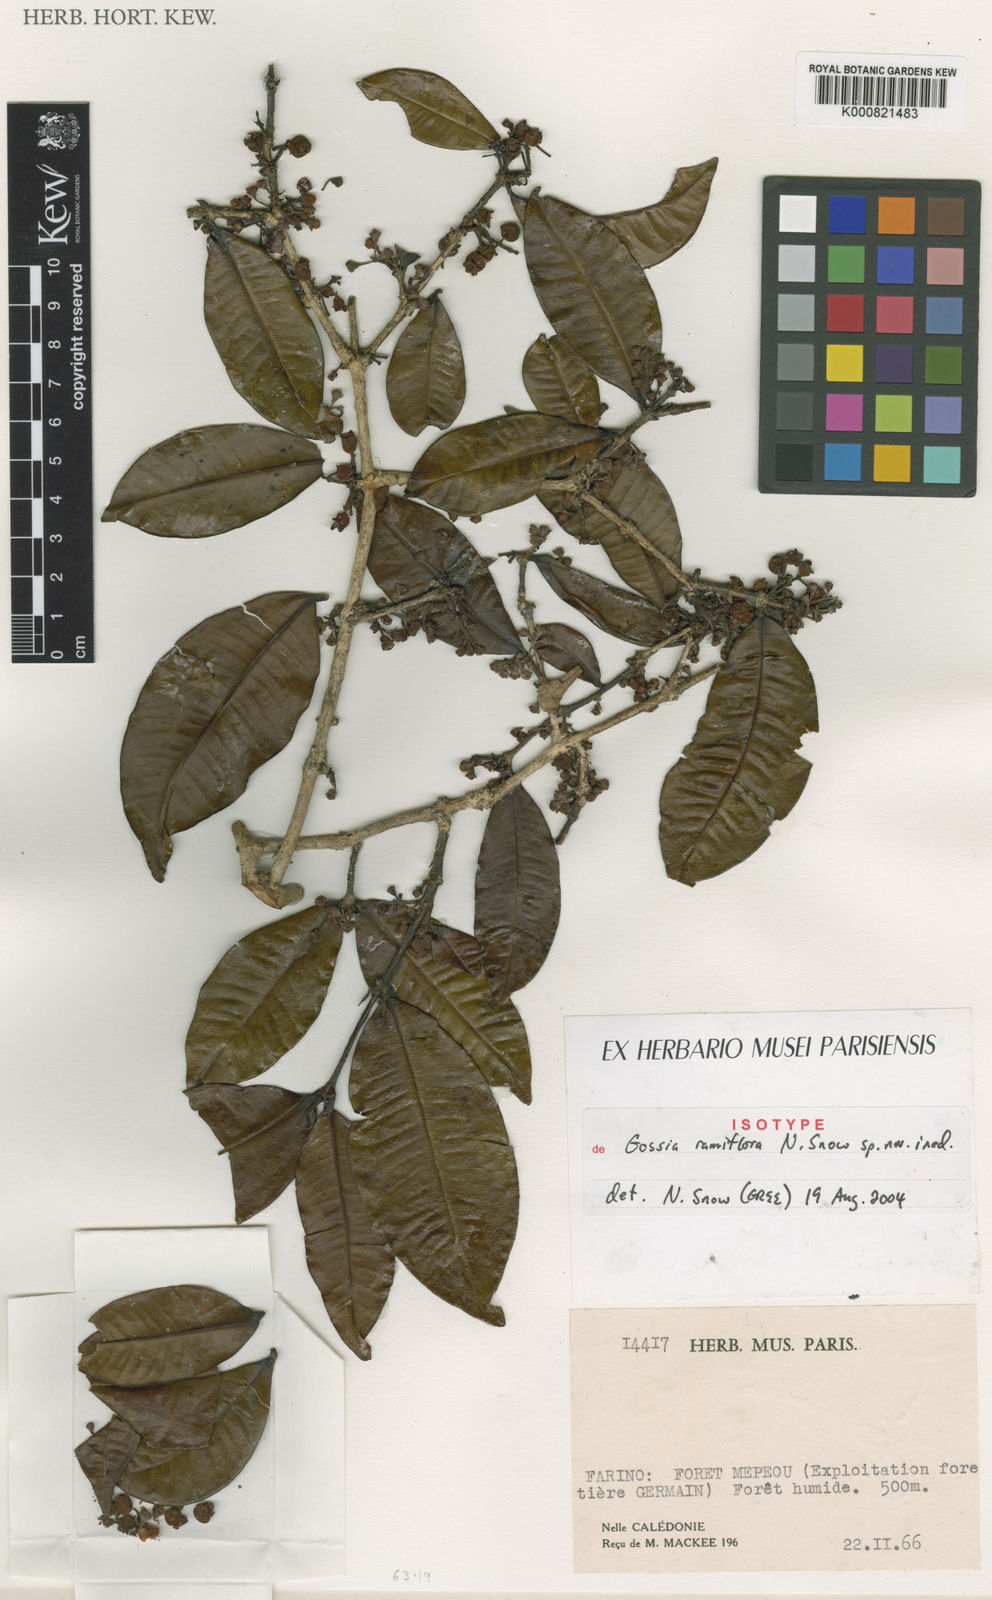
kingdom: Plantae
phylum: Tracheophyta
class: Magnoliopsida
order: Myrtales
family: Myrtaceae
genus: Gossia
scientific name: Gossia
